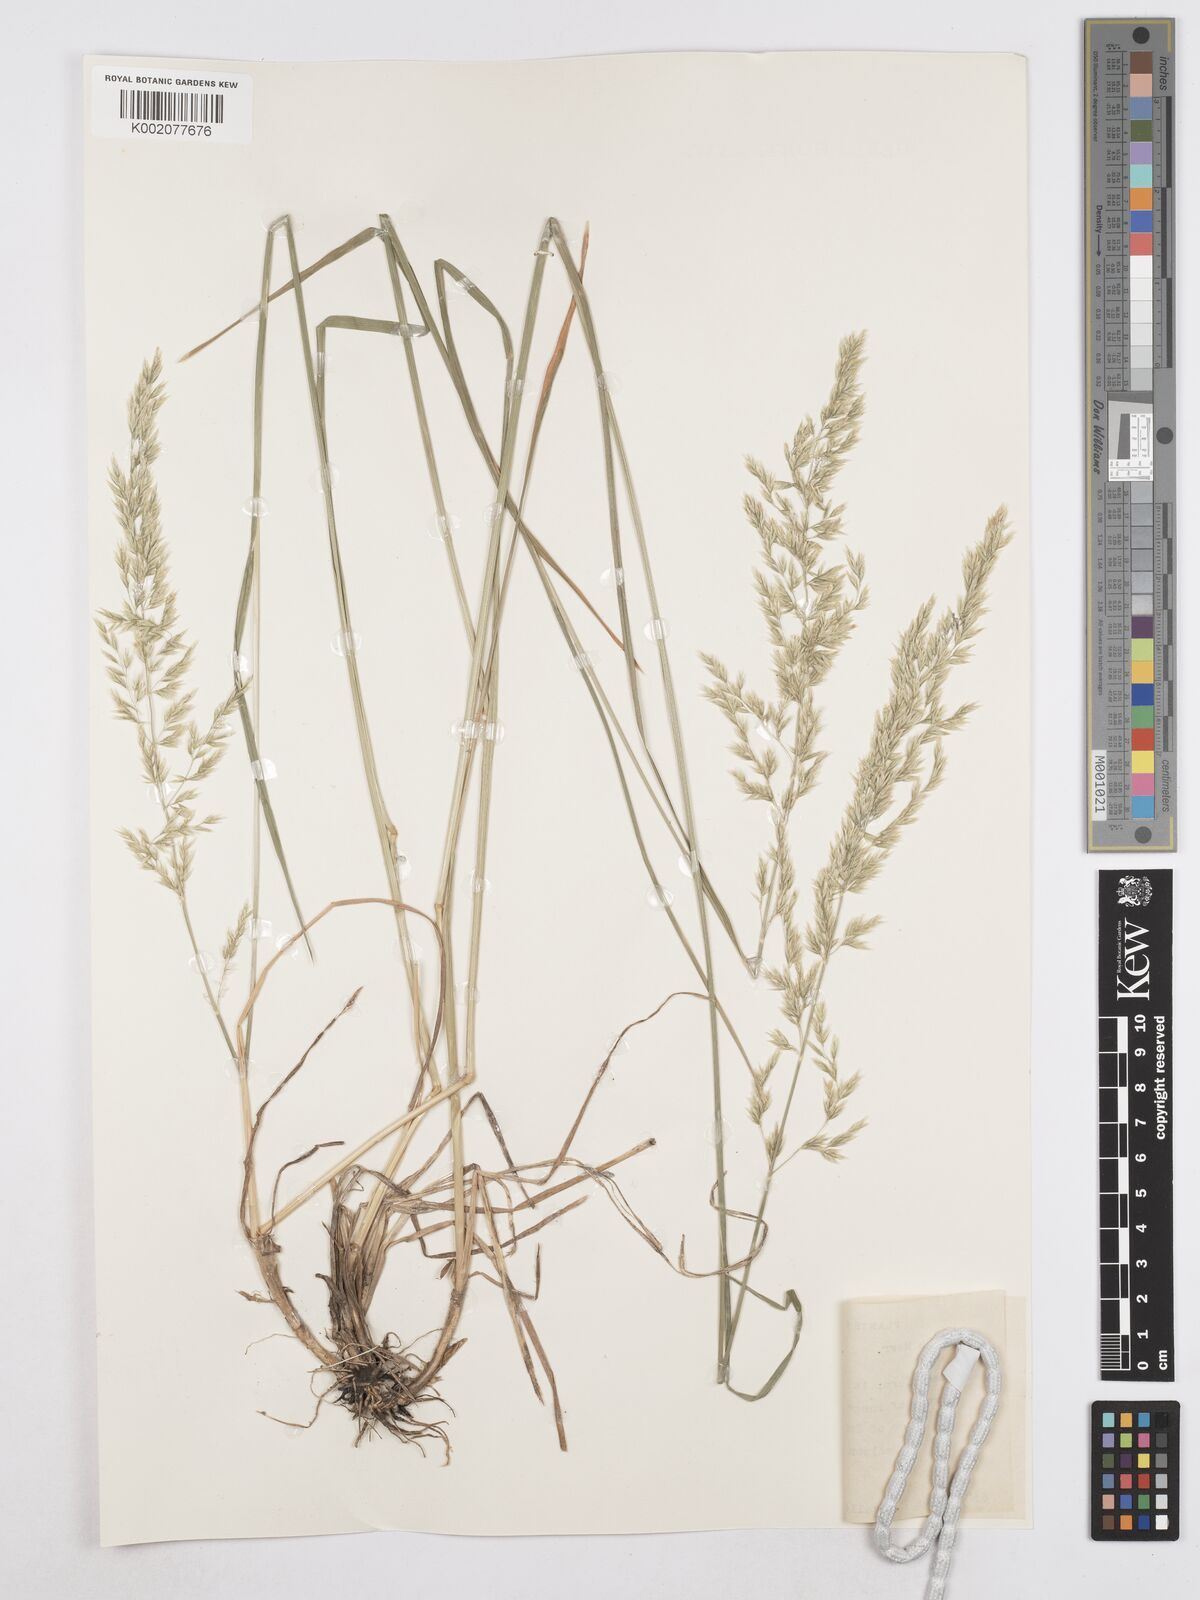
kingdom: Plantae
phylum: Tracheophyta
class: Liliopsida
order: Poales
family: Poaceae
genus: Poa
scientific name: Poa secunda
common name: Sandberg bluegrass
